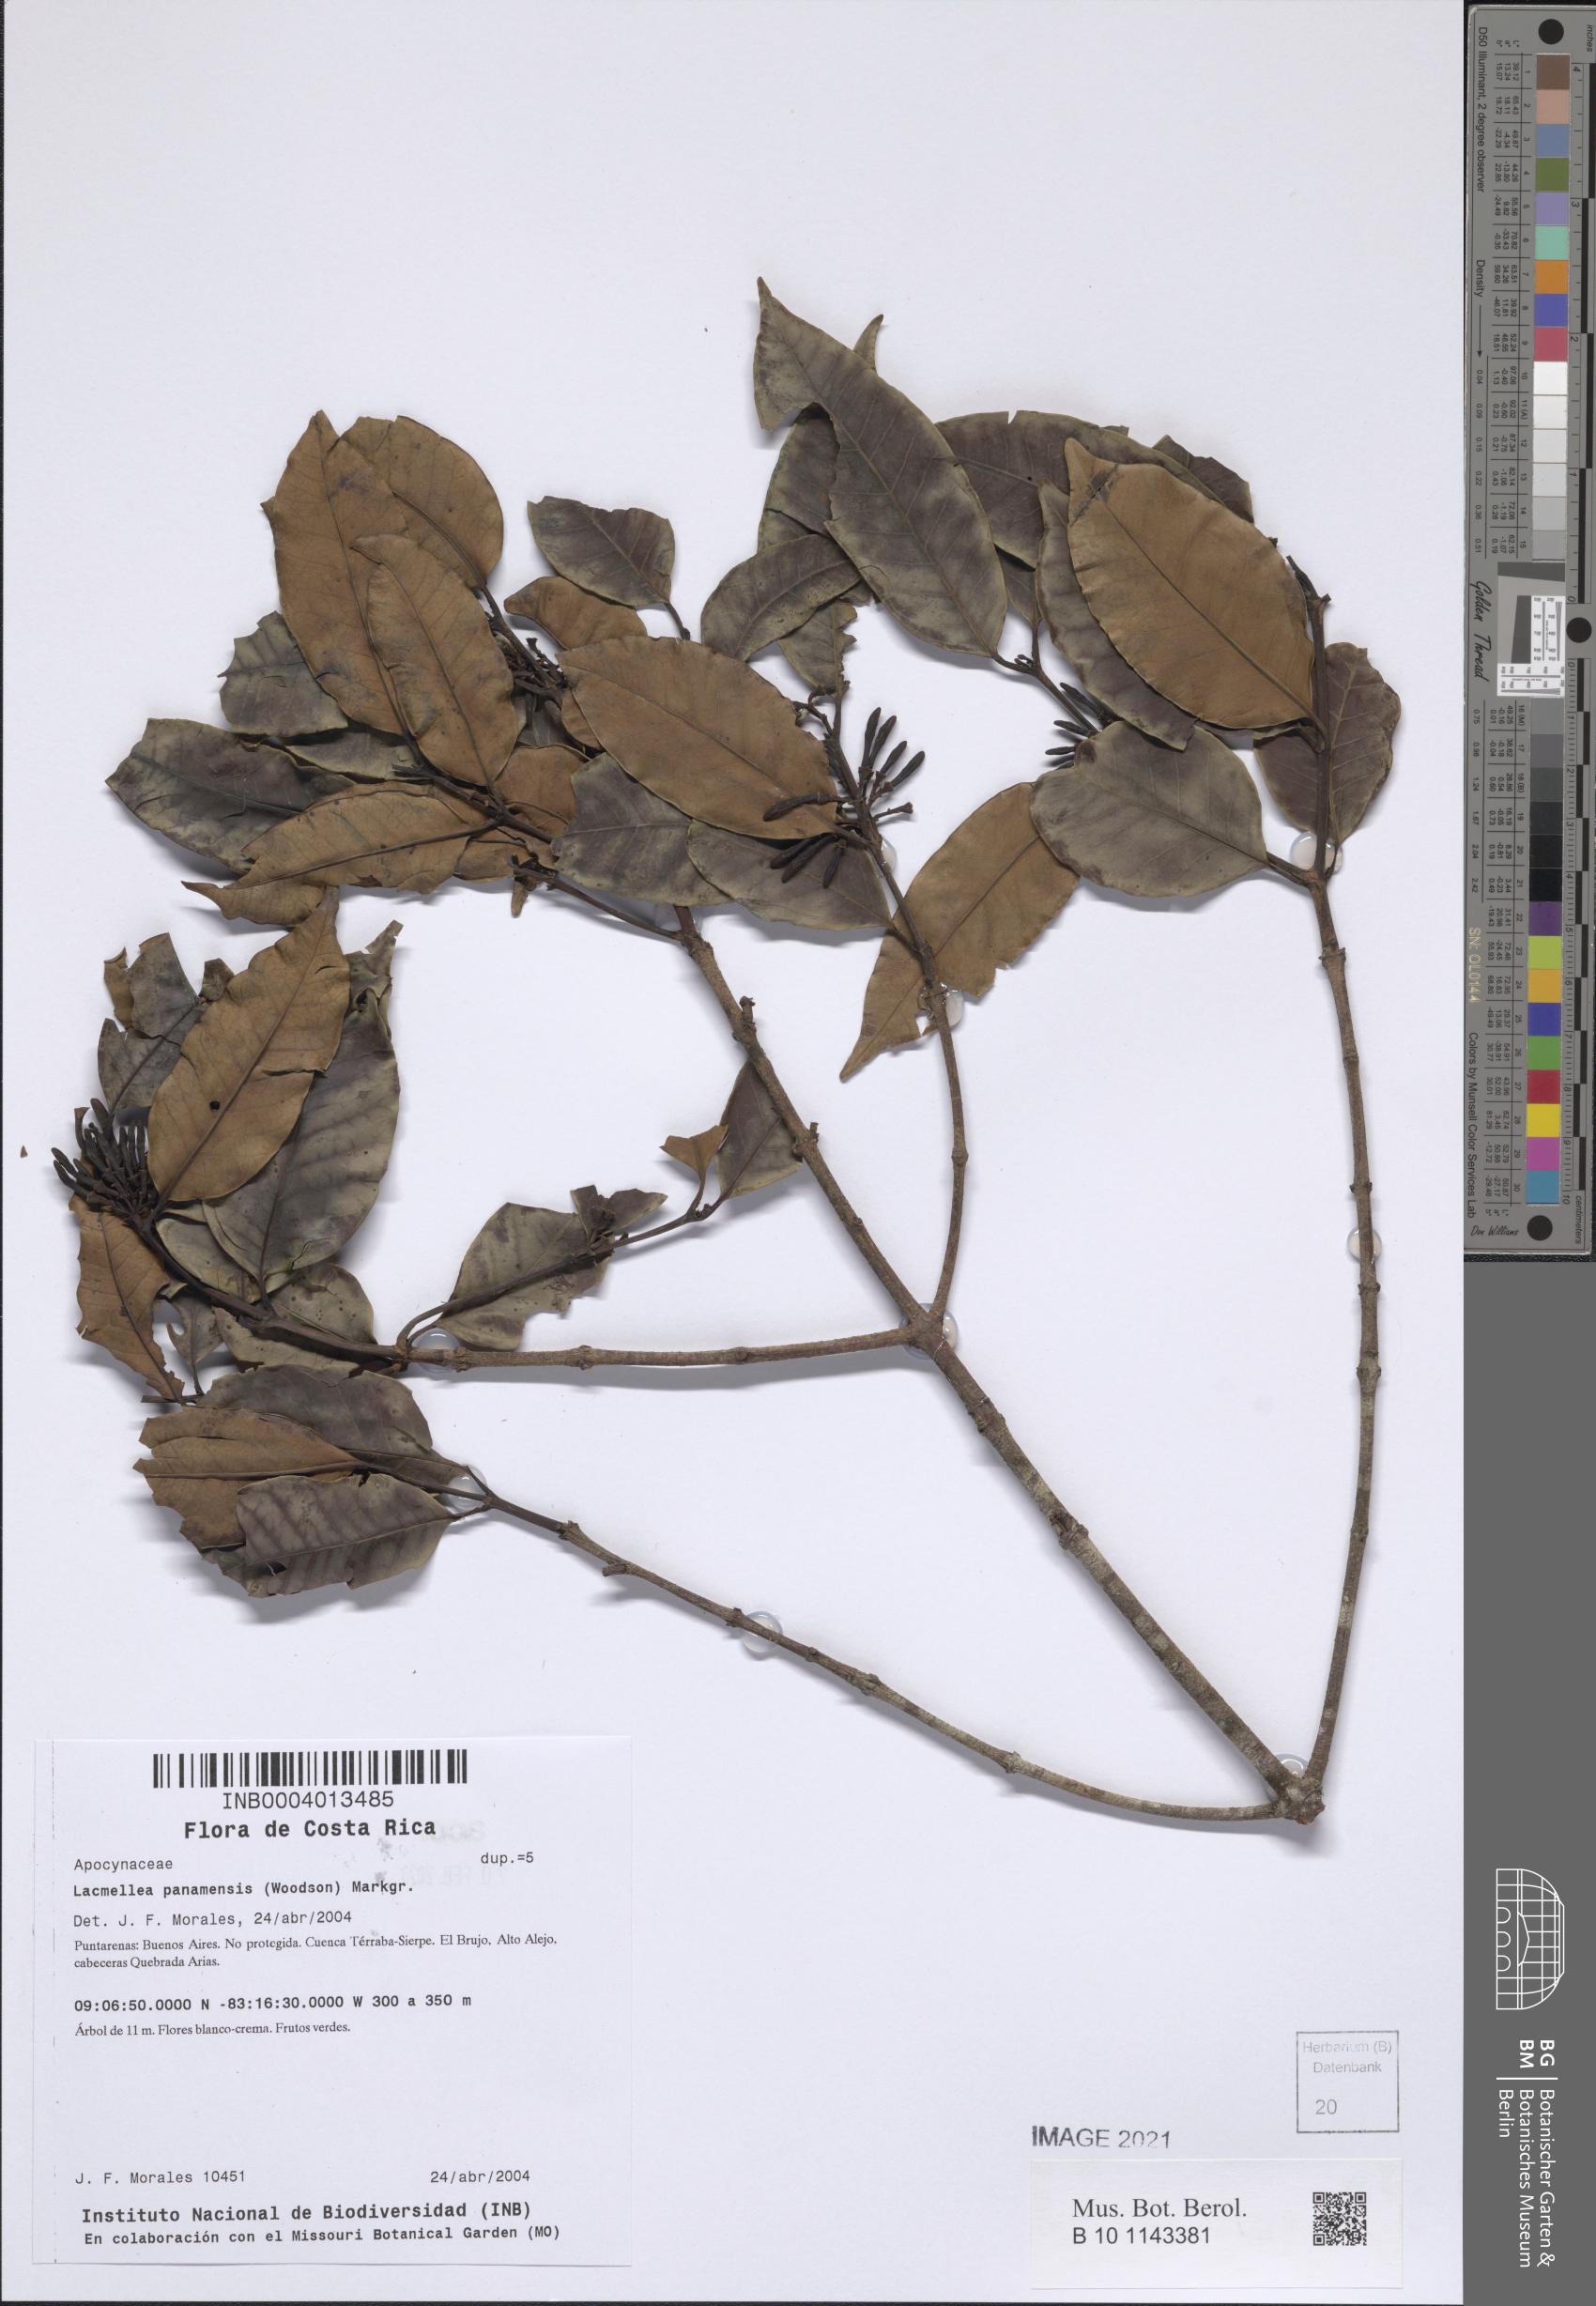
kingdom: Plantae
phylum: Tracheophyta
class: Magnoliopsida
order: Gentianales
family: Apocynaceae
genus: Lacmellea
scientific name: Lacmellea panamensis
